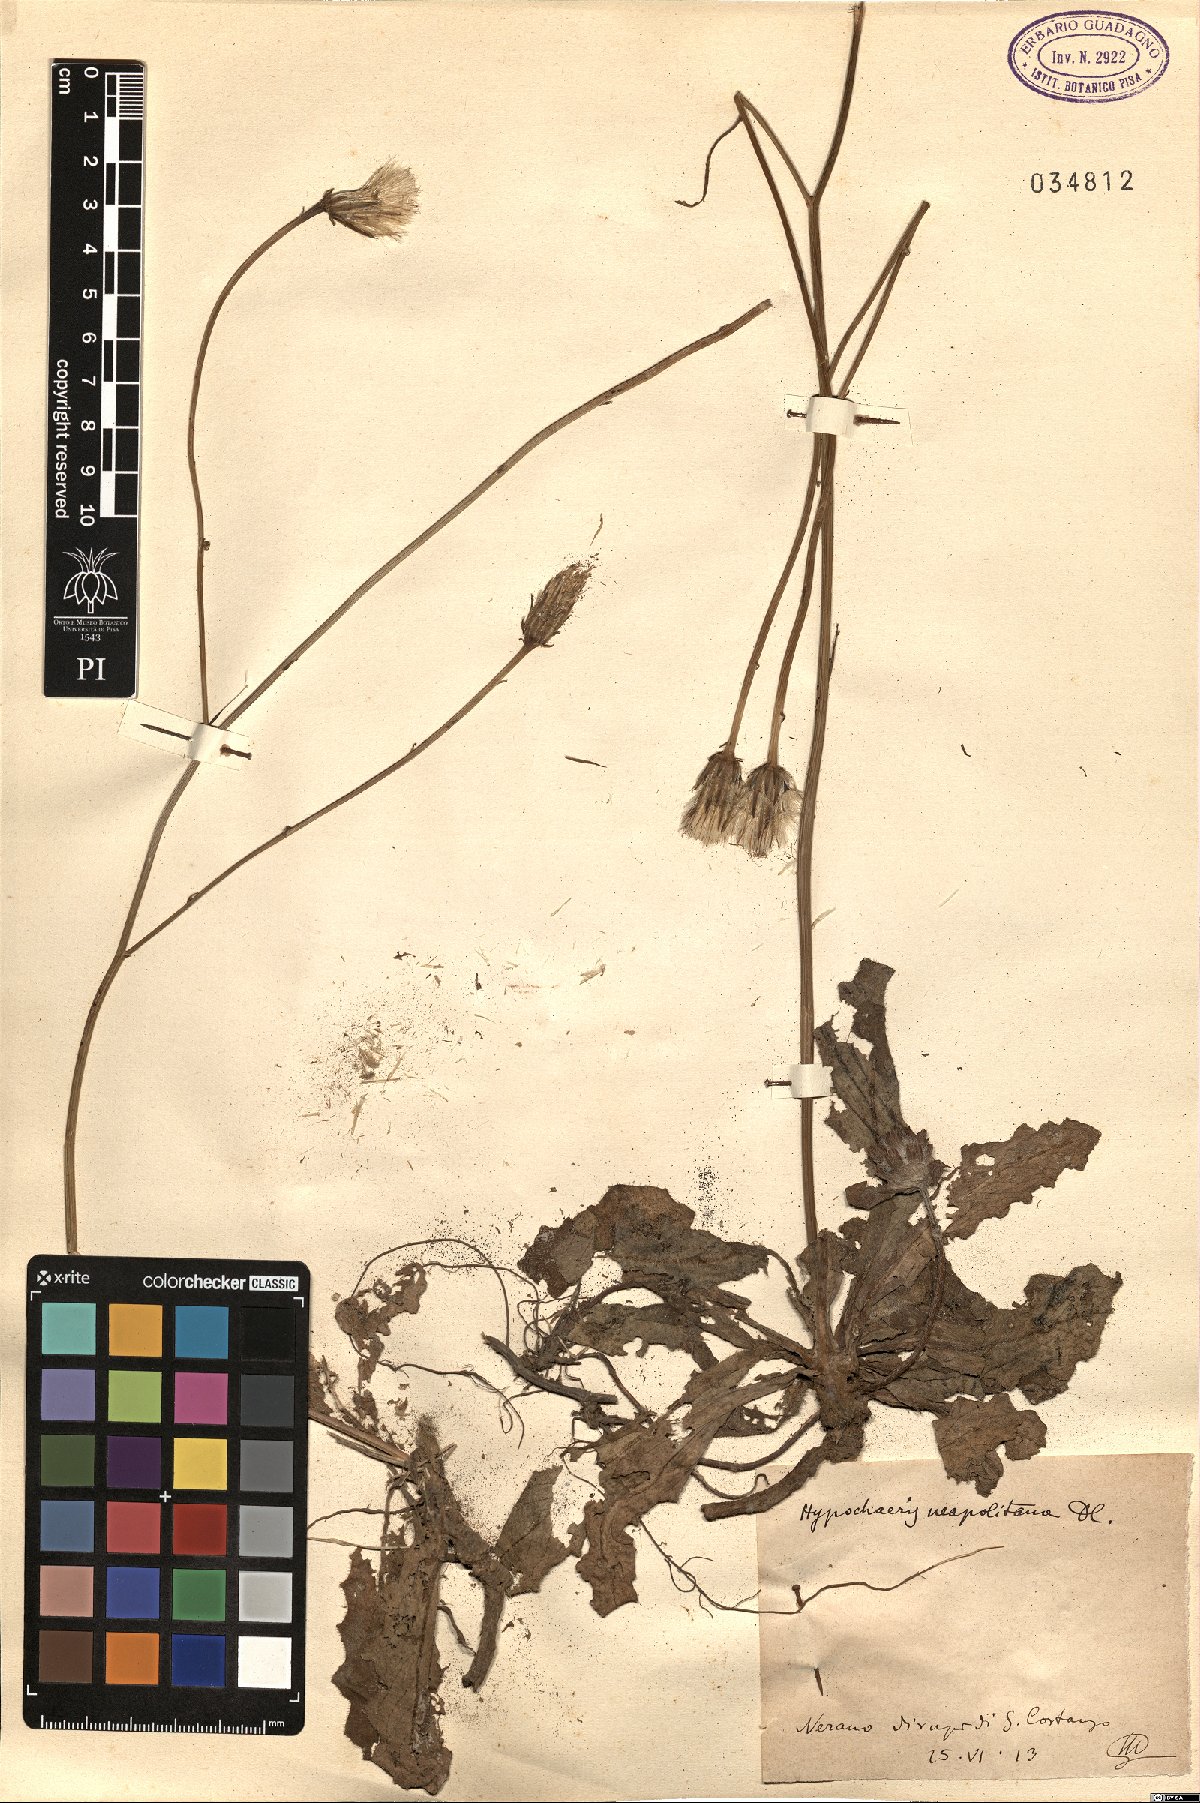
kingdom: Plantae
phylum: Tracheophyta
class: Magnoliopsida
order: Asterales
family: Asteraceae
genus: Hypochaeris
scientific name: Hypochaeris radicata
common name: Flatweed
